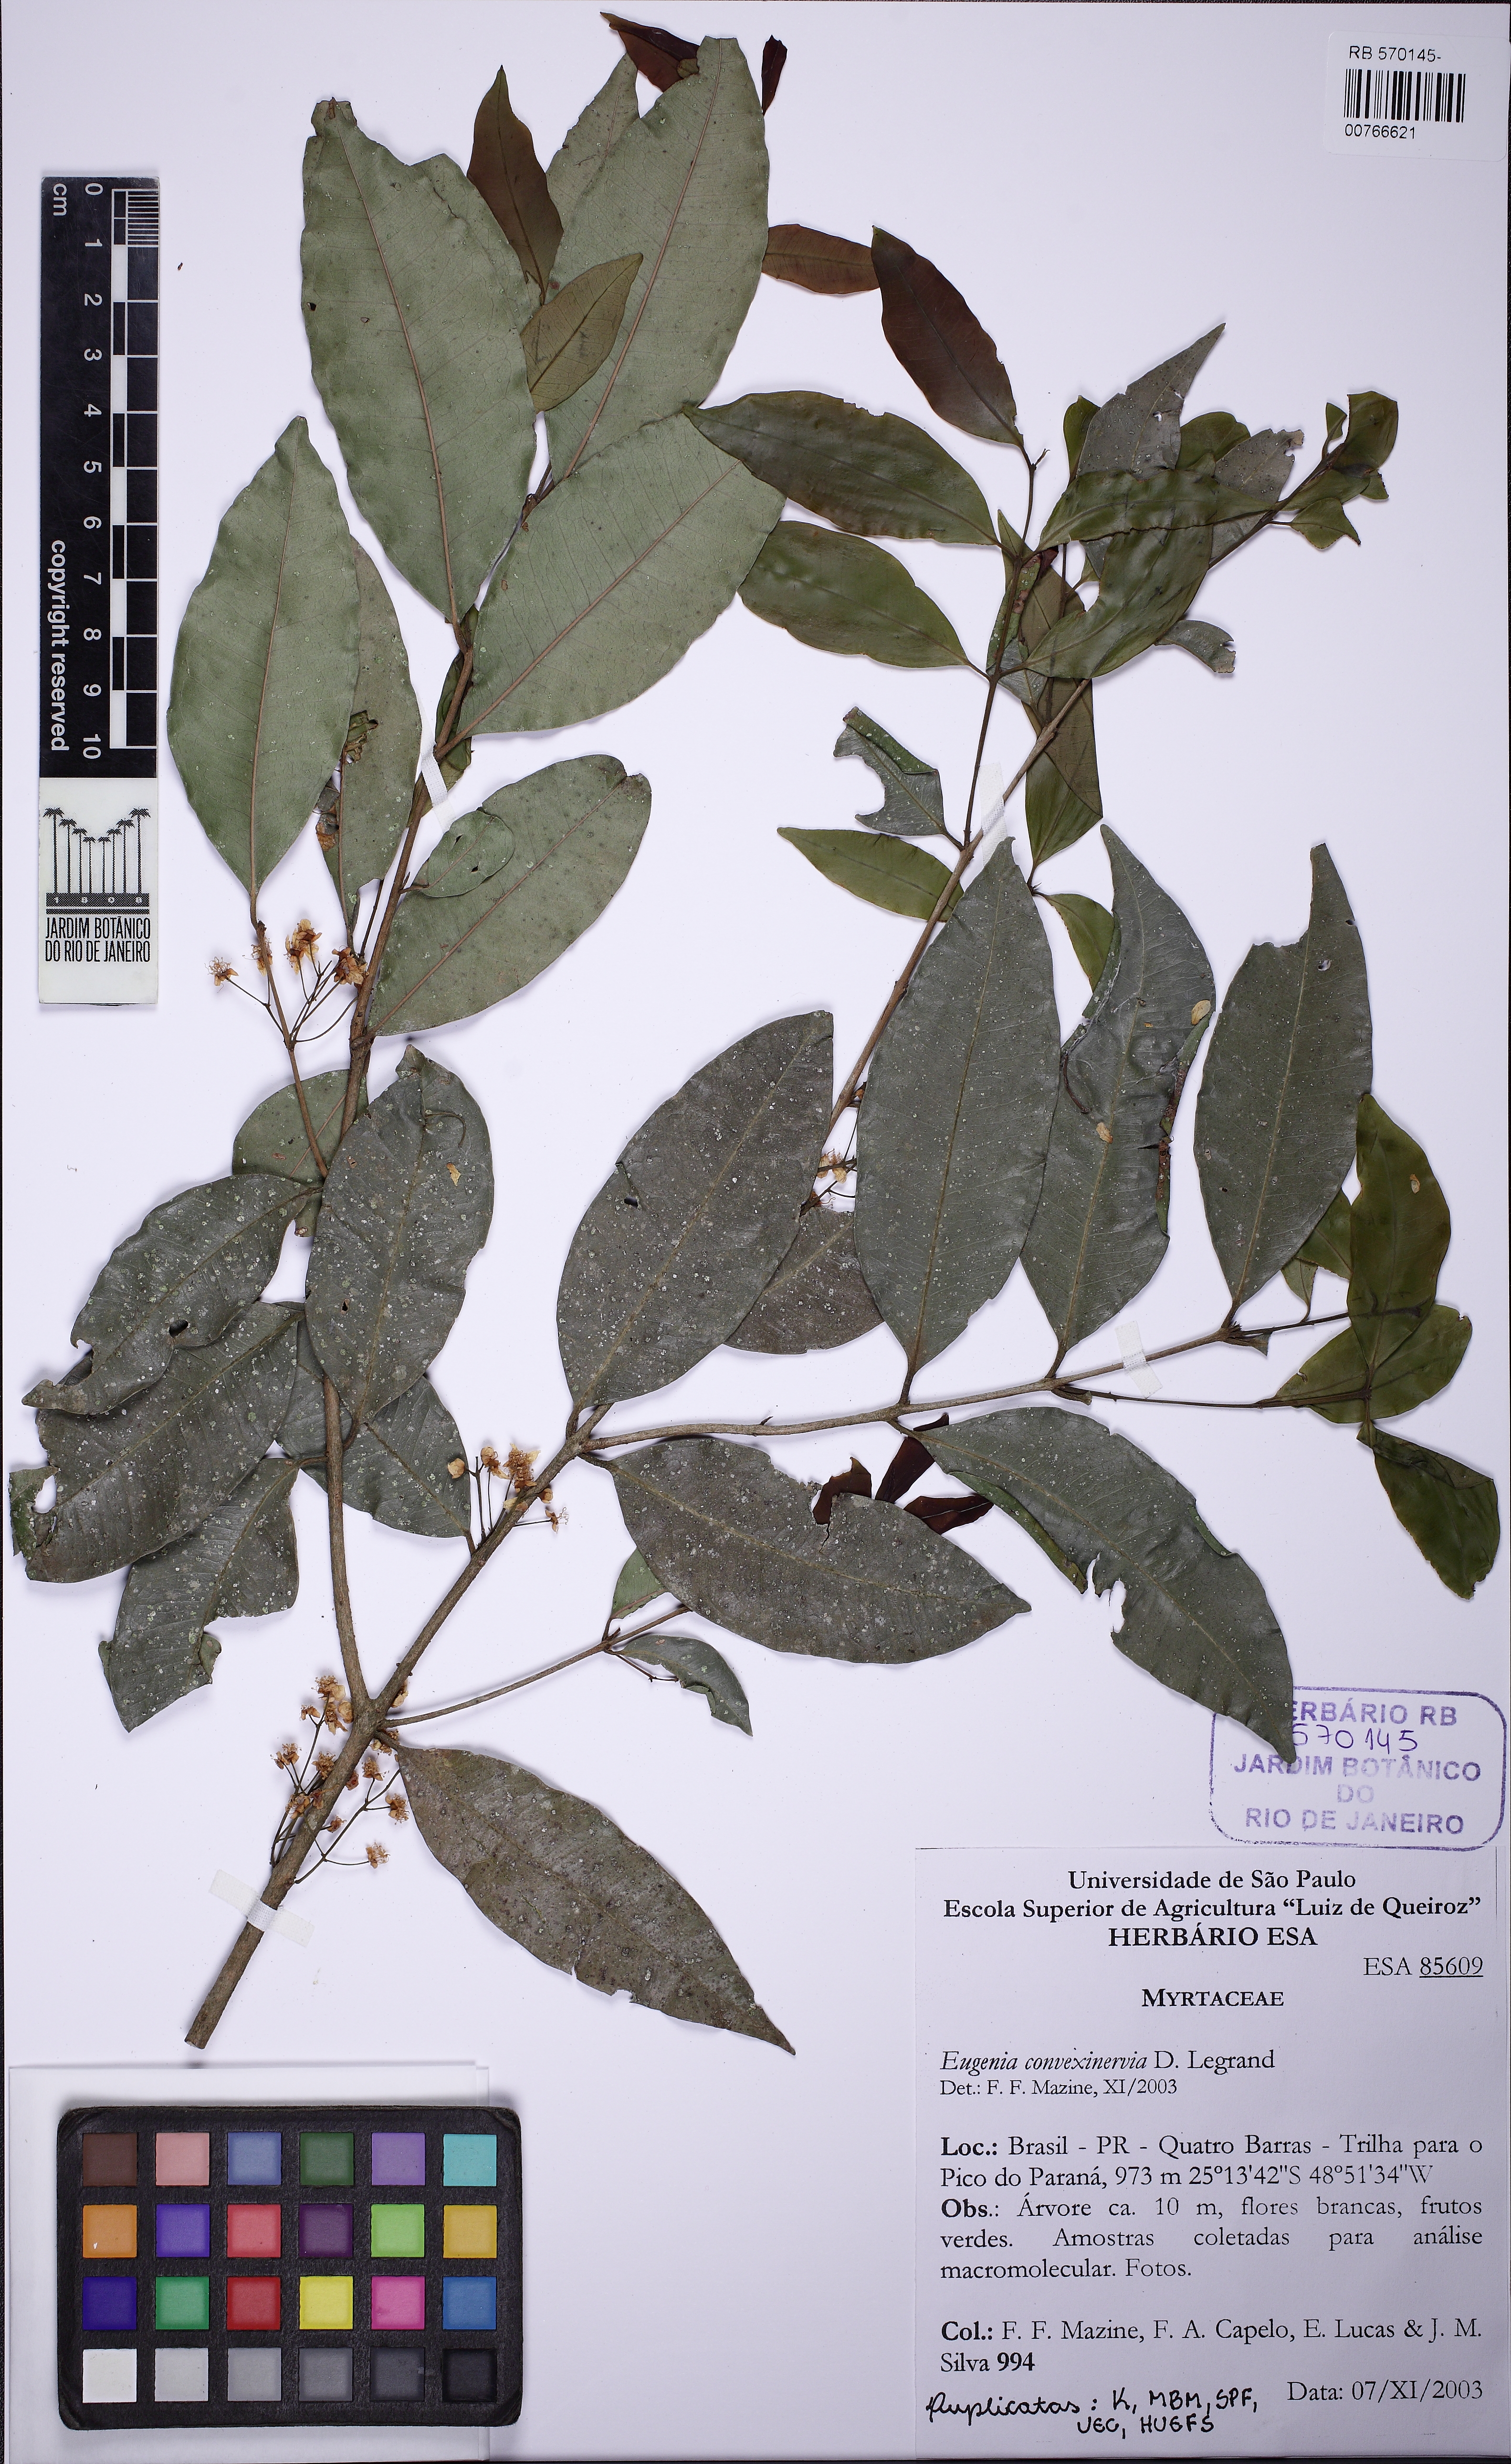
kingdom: Plantae
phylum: Tracheophyta
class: Magnoliopsida
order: Myrtales
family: Myrtaceae
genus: Eugenia
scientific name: Eugenia convexinervia
